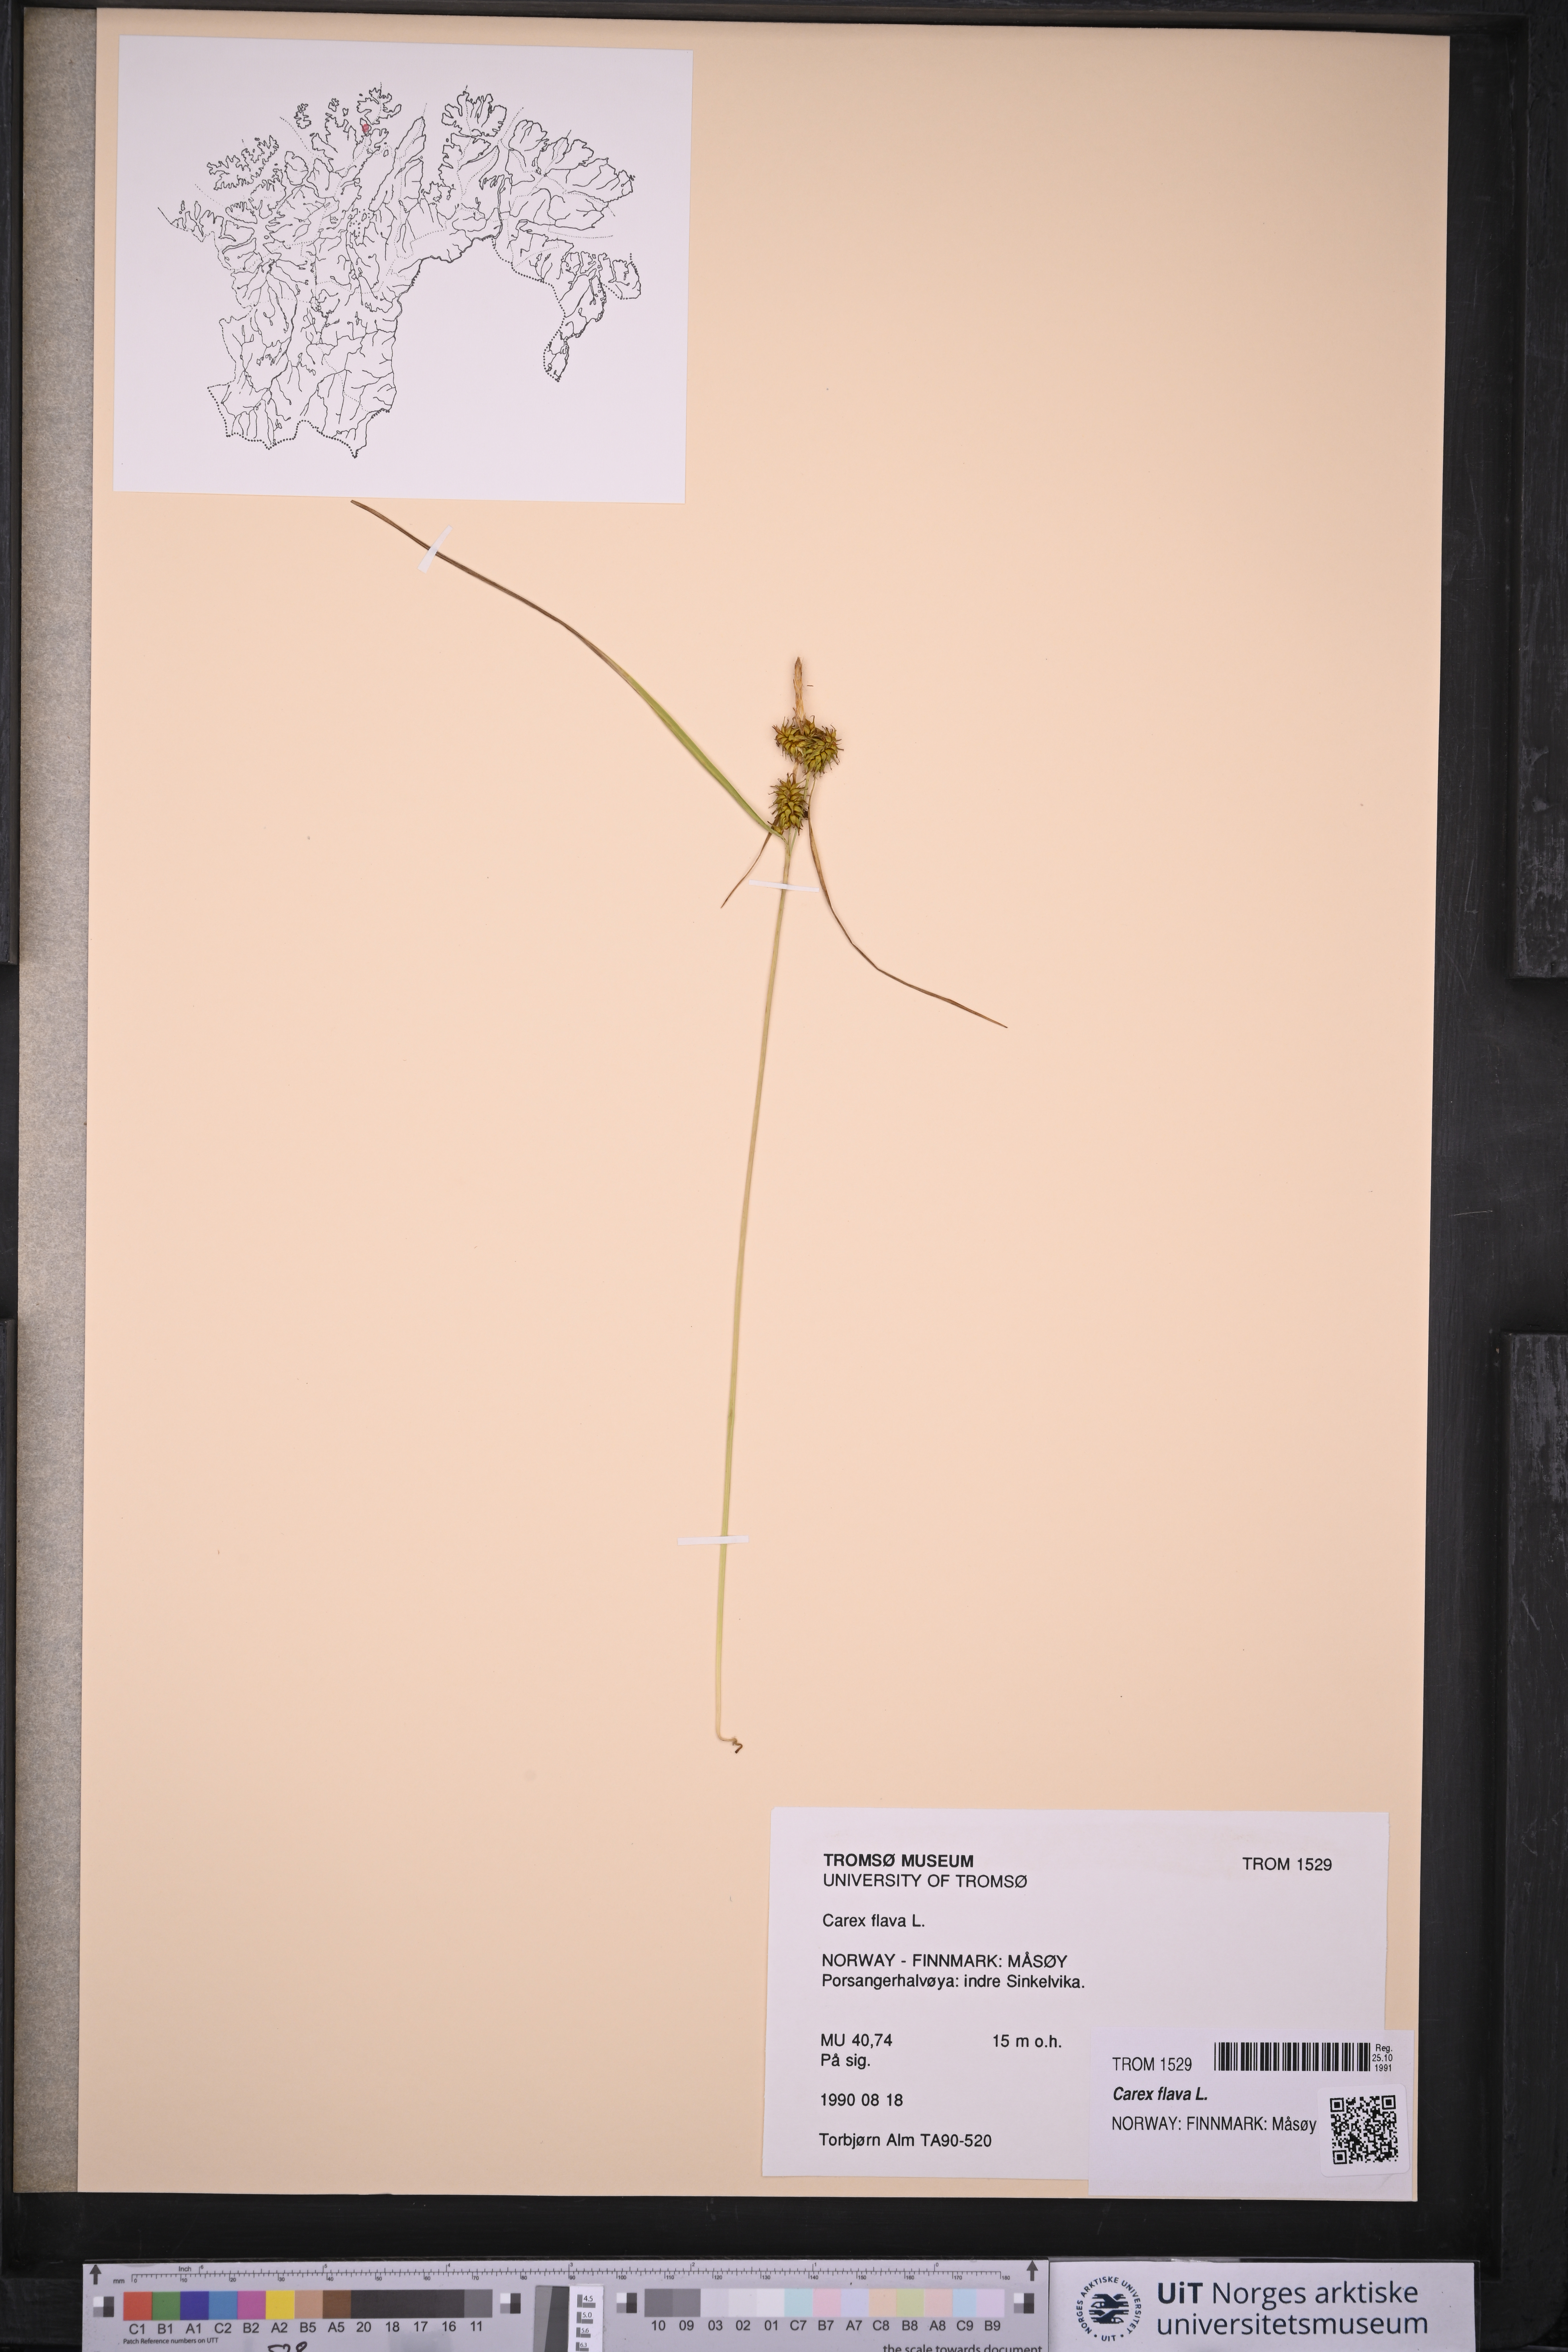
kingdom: Plantae
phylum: Tracheophyta
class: Liliopsida
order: Poales
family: Cyperaceae
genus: Carex
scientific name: Carex flava
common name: Large yellow-sedge
